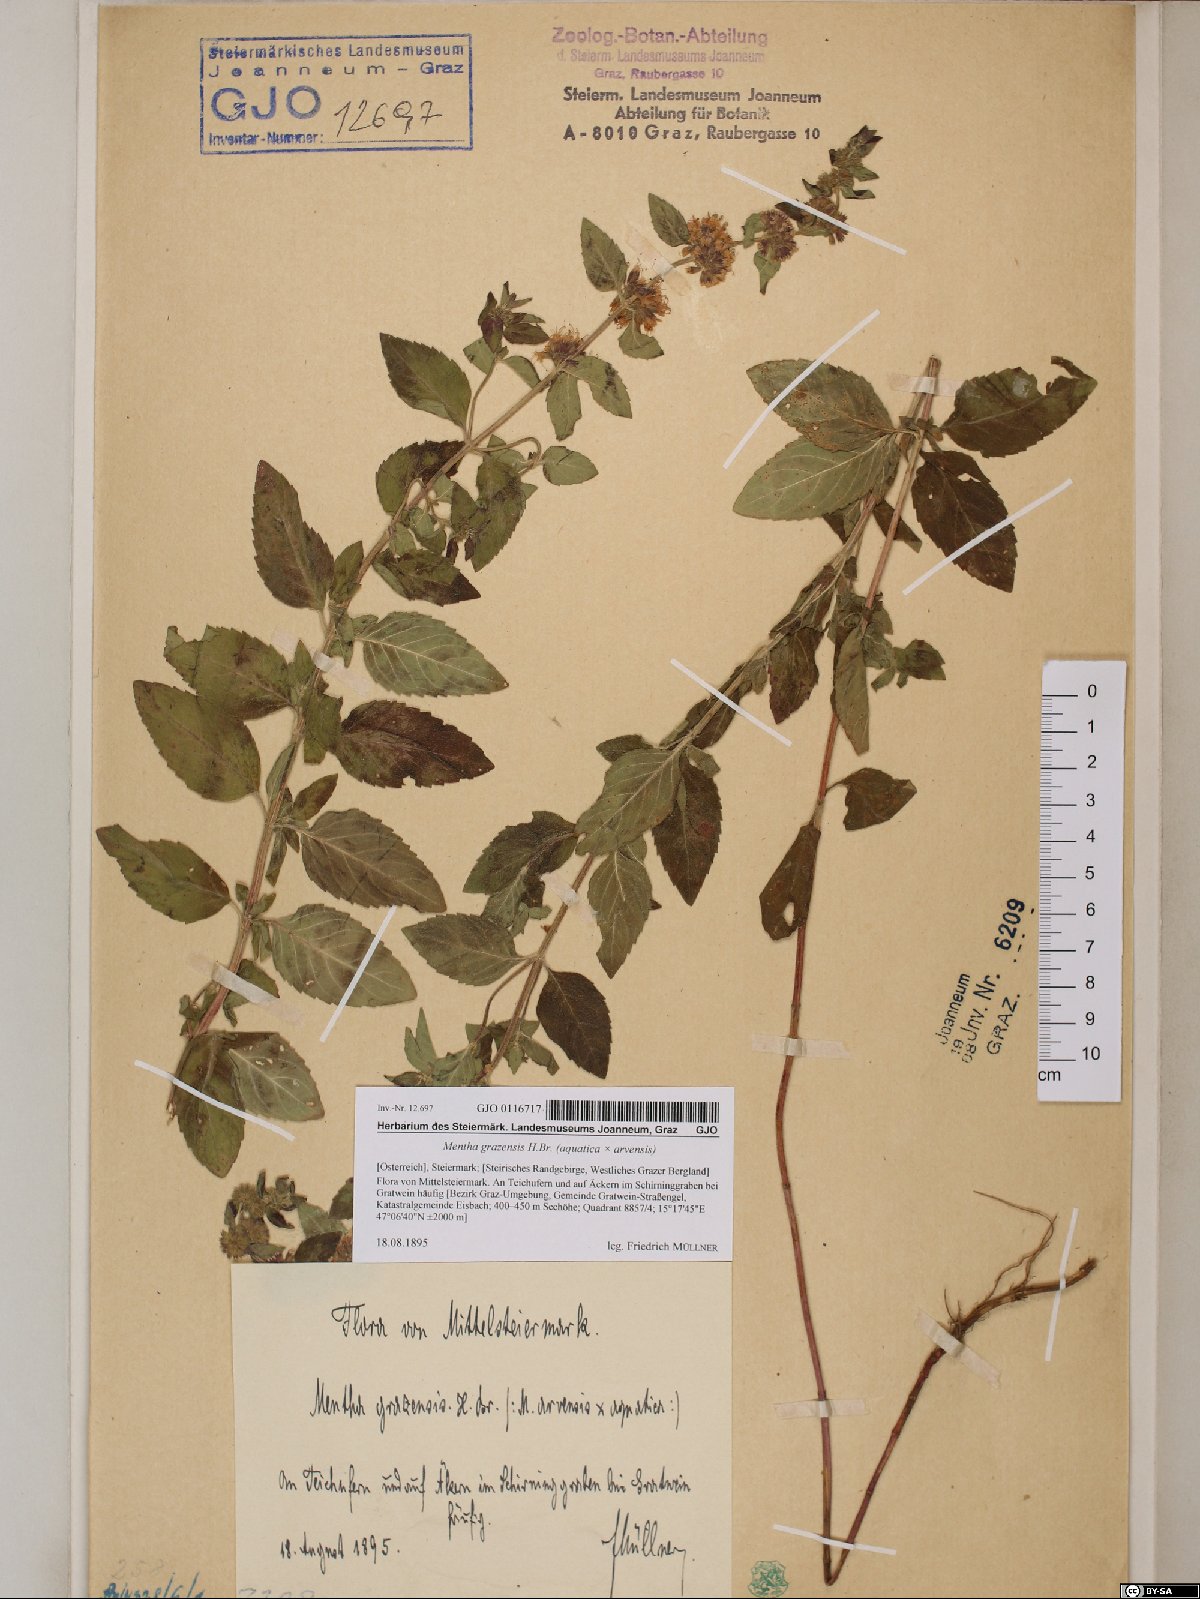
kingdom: Plantae
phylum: Tracheophyta
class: Magnoliopsida
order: Lamiales
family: Lamiaceae
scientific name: Lamiaceae
